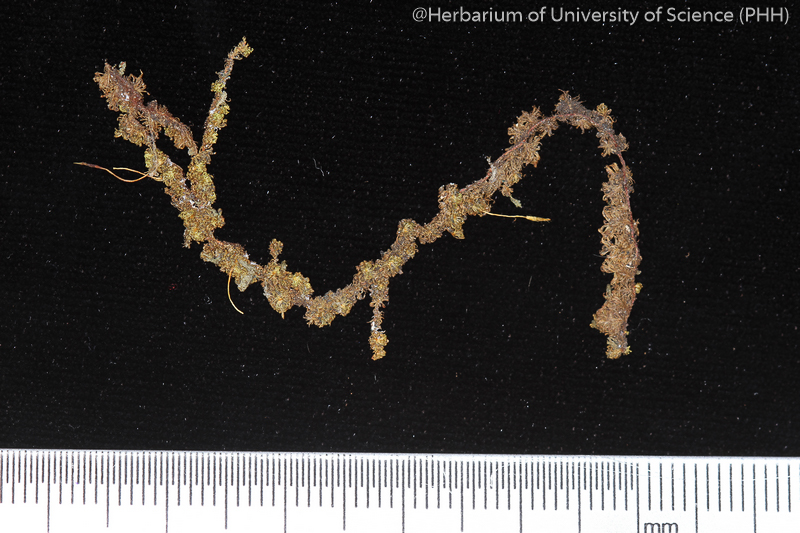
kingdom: Plantae
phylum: Bryophyta
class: Bryopsida
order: Orthotrichales
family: Orthotrichaceae
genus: Macromitrium
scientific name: Macromitrium japonicum
